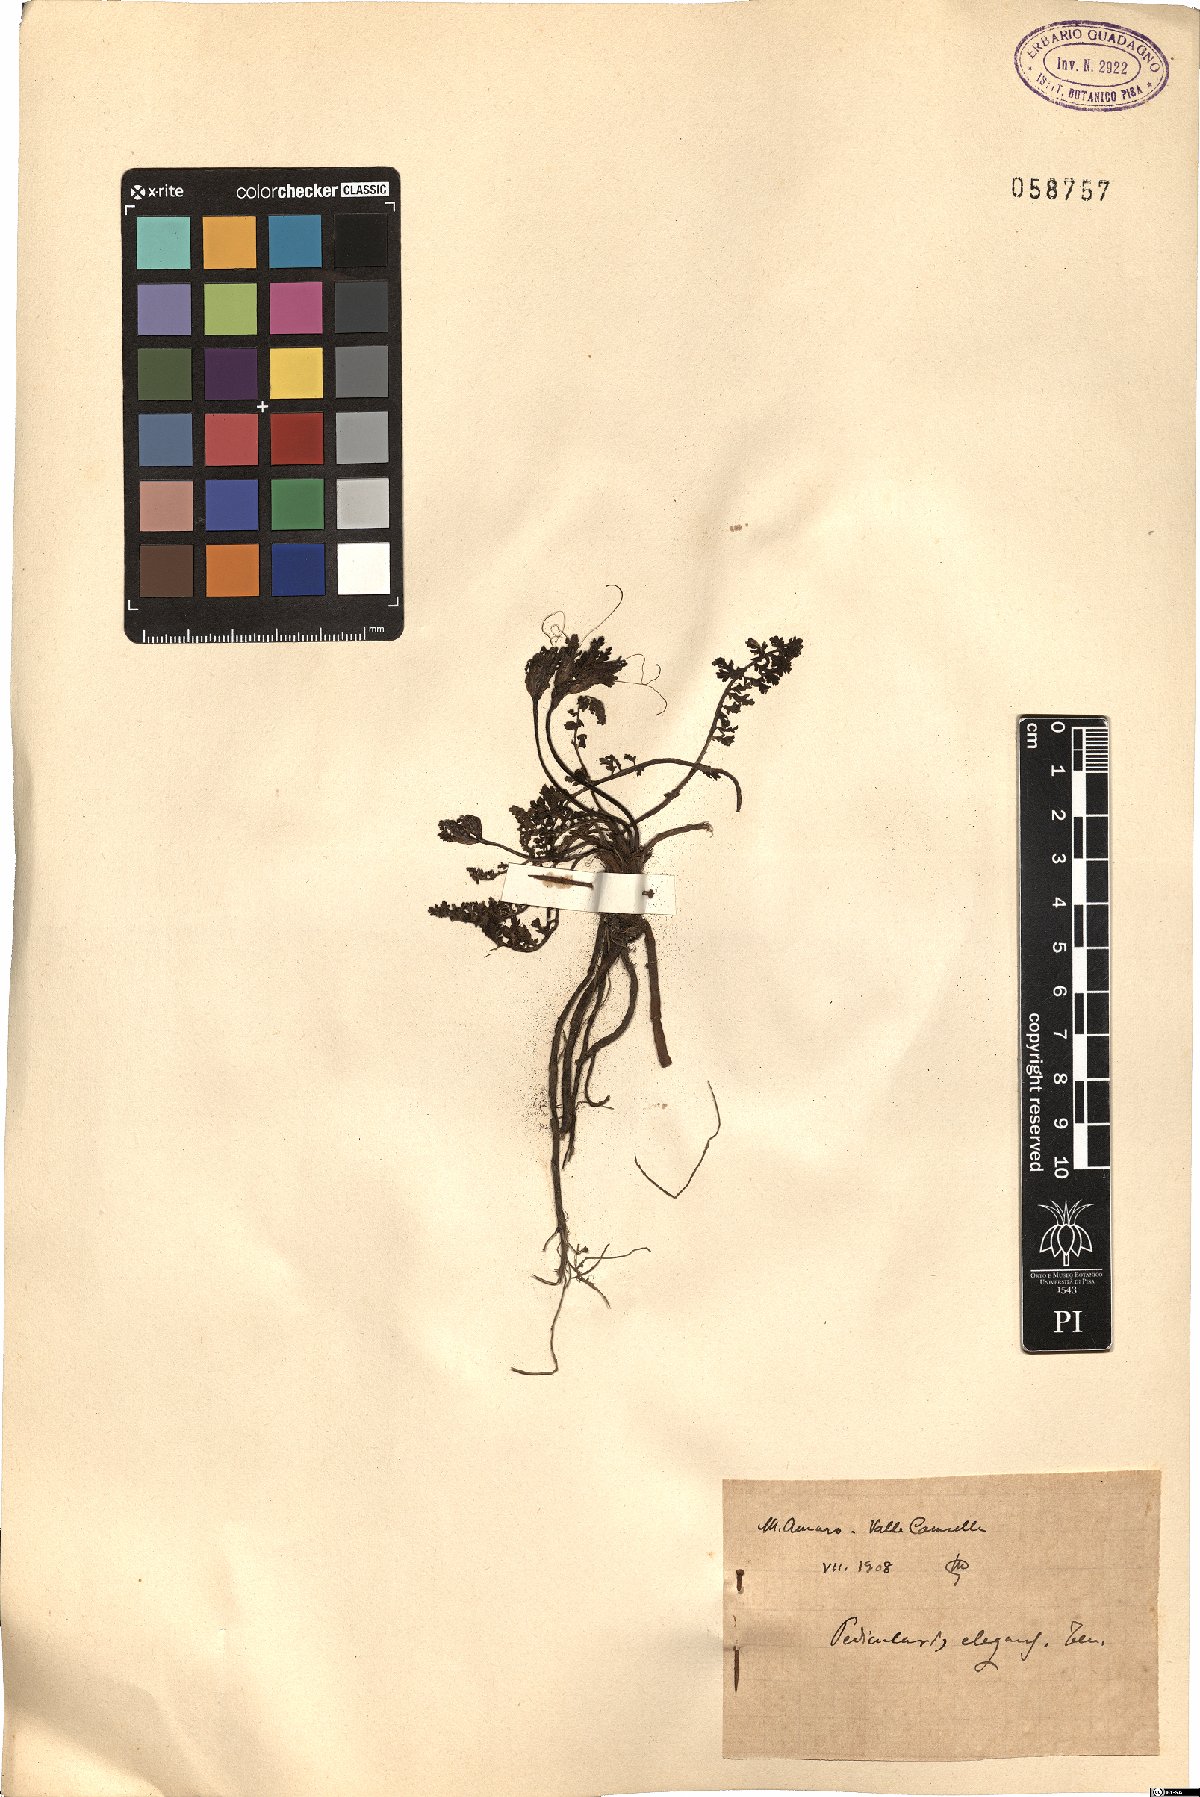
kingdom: Plantae
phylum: Tracheophyta
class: Magnoliopsida
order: Lamiales
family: Orobanchaceae
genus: Pedicularis
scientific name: Pedicularis elegans
